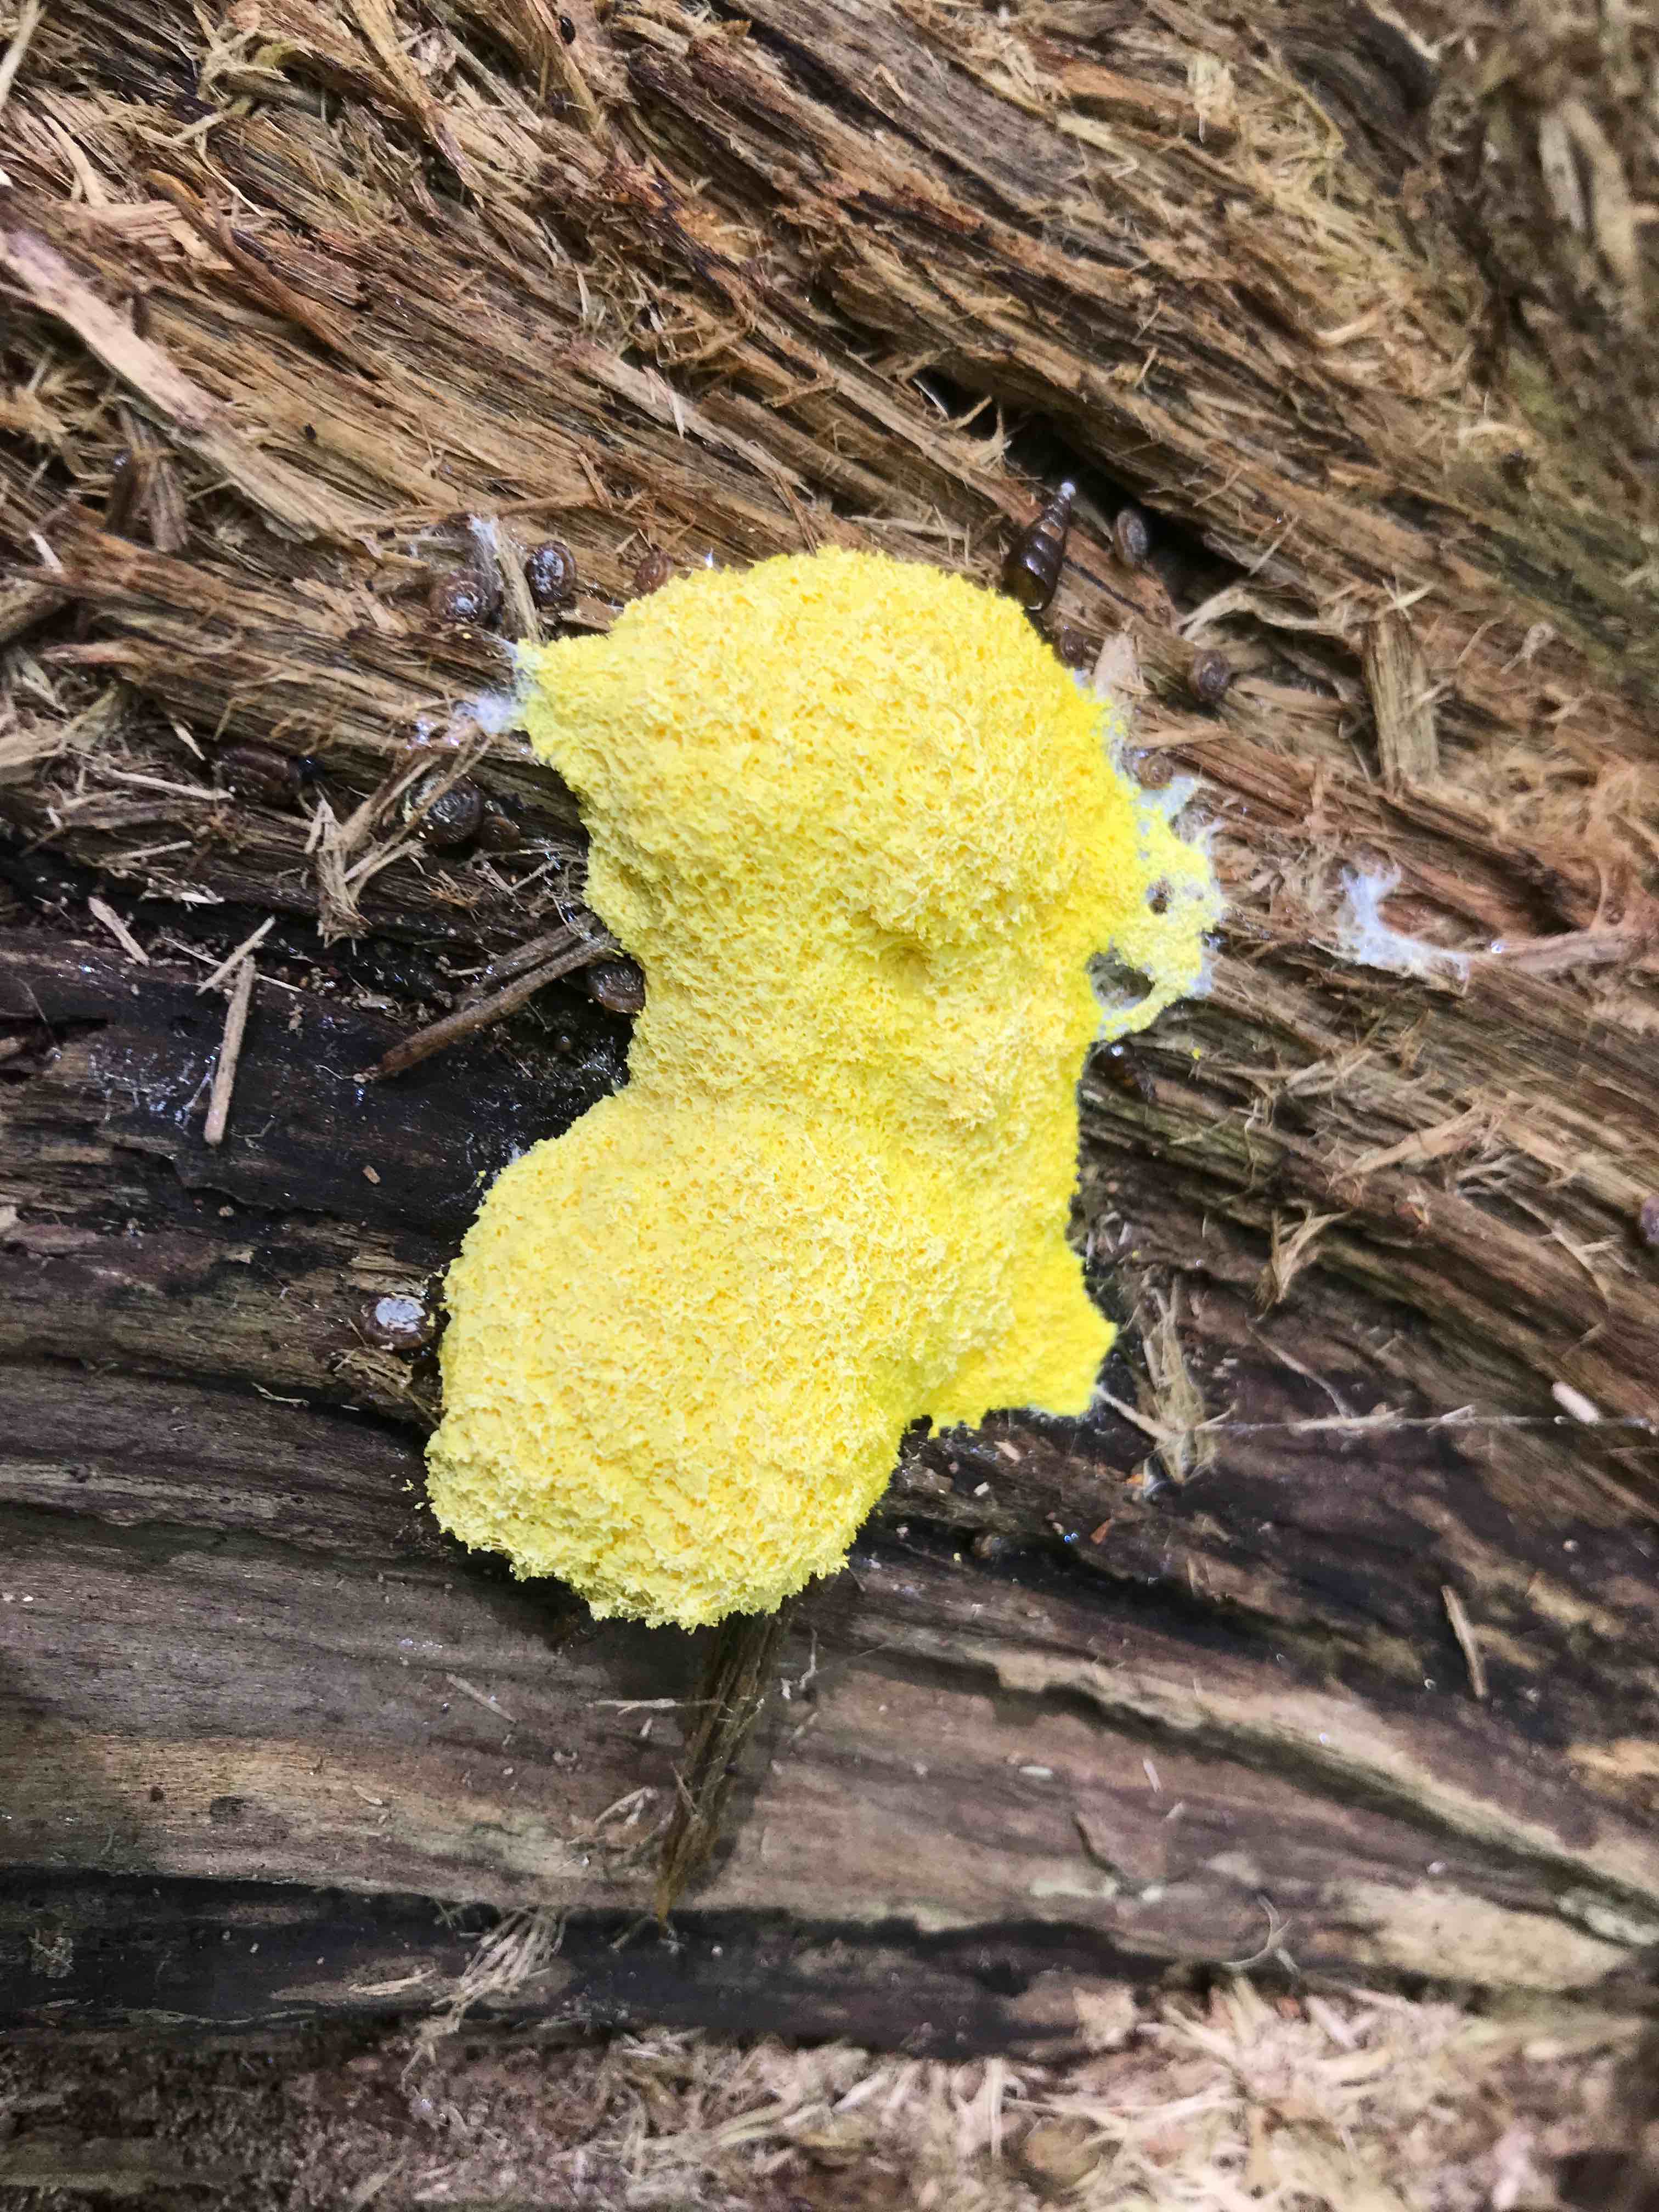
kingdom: Protozoa
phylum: Mycetozoa
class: Myxomycetes
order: Physarales
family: Physaraceae
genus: Fuligo
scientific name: Fuligo septica
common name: gul troldsmør
